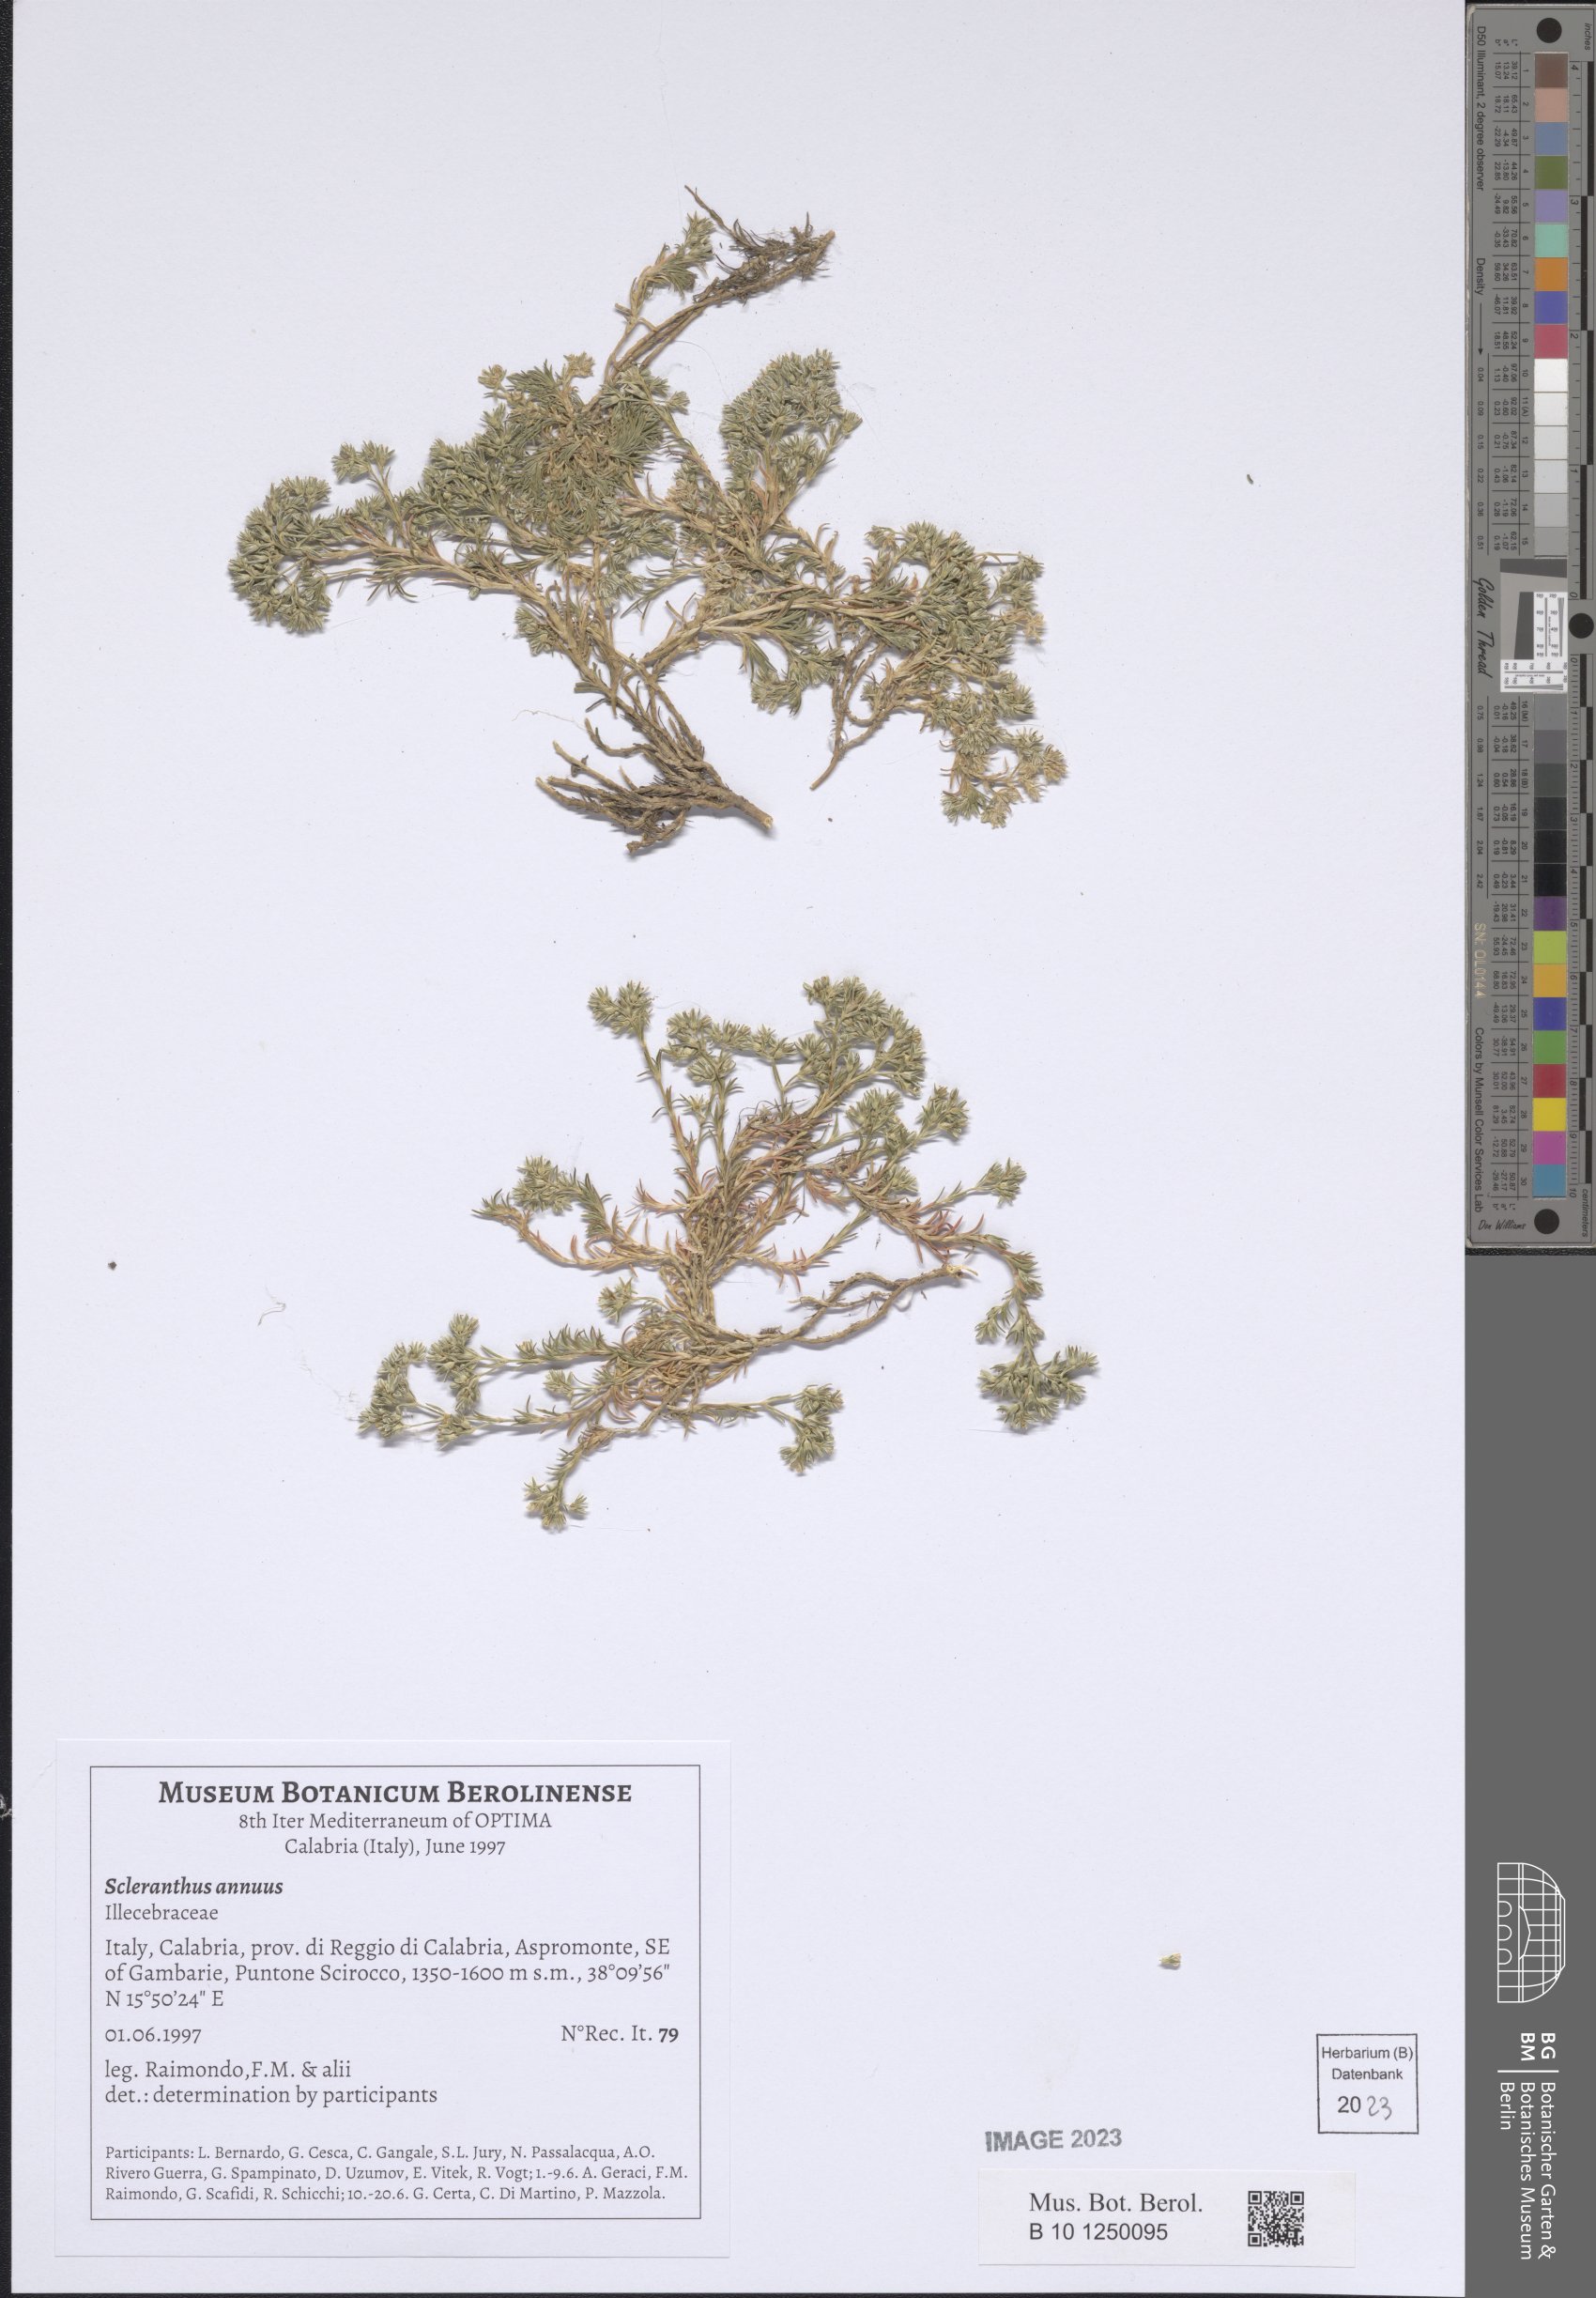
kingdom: Plantae
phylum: Tracheophyta
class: Magnoliopsida
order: Caryophyllales
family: Caryophyllaceae
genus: Scleranthus
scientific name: Scleranthus annuus
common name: Annual knawel
